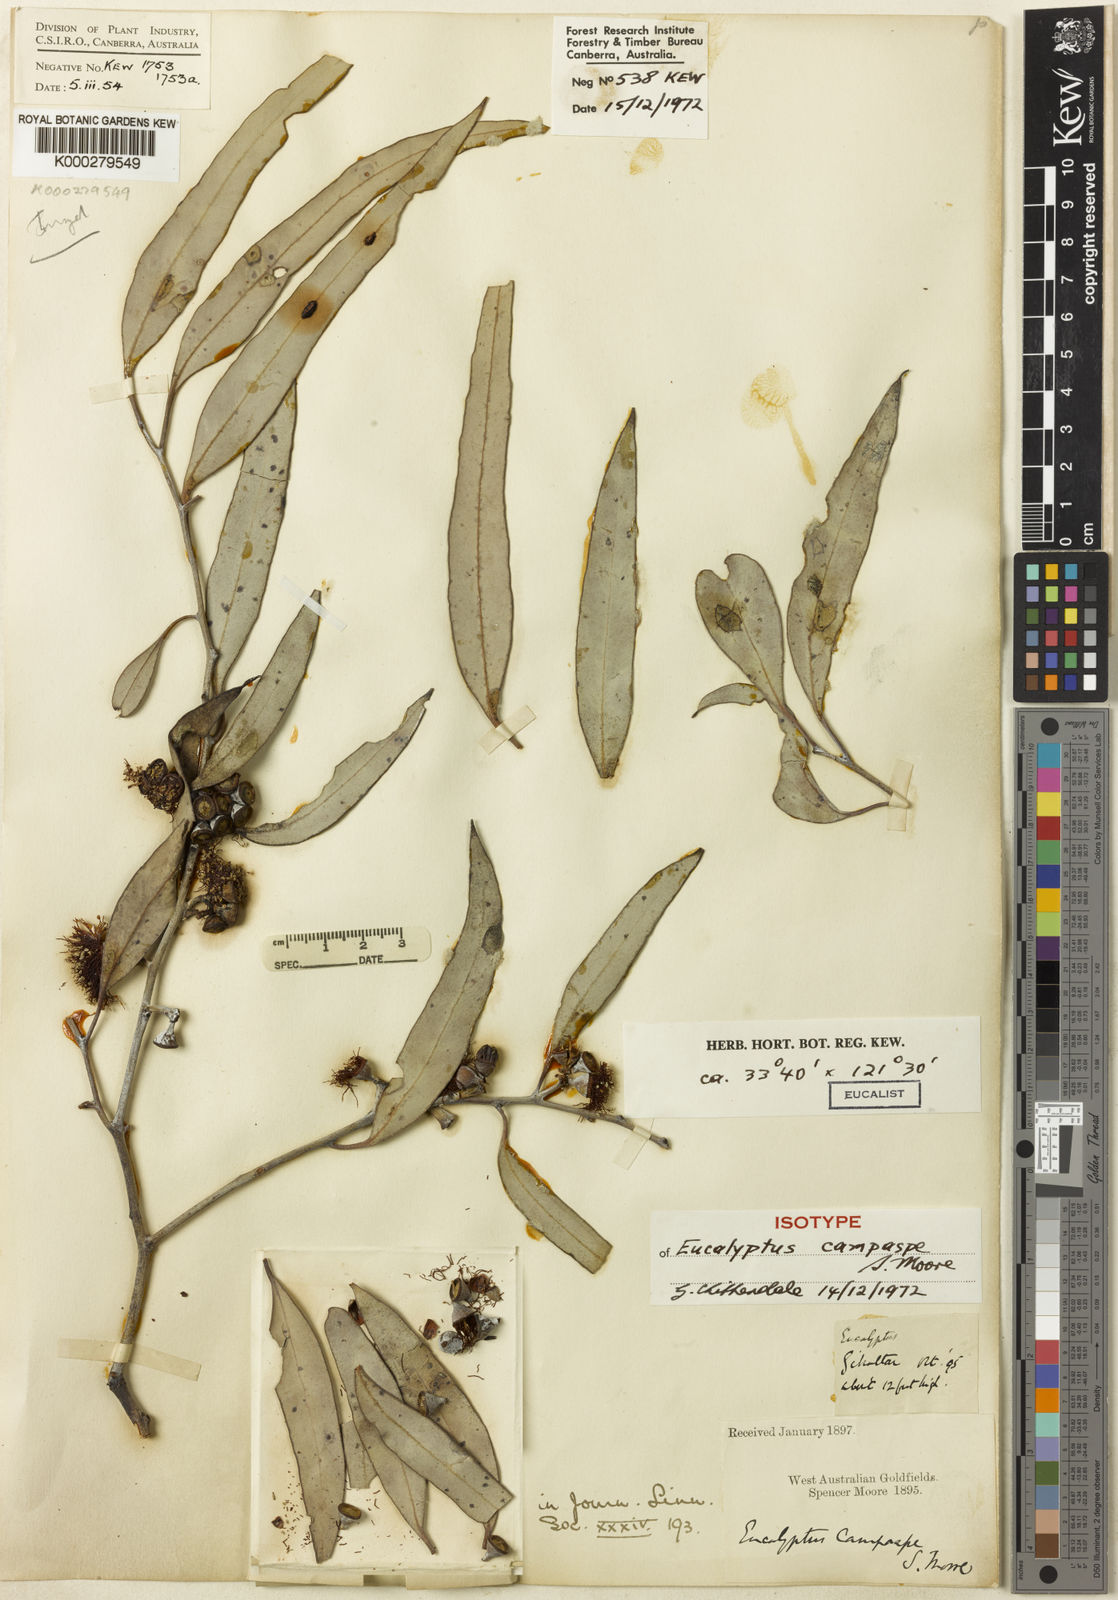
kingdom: Plantae
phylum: Tracheophyta
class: Magnoliopsida
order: Myrtales
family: Myrtaceae
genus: Eucalyptus
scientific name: Eucalyptus campaspe
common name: Silver-top gimlet
